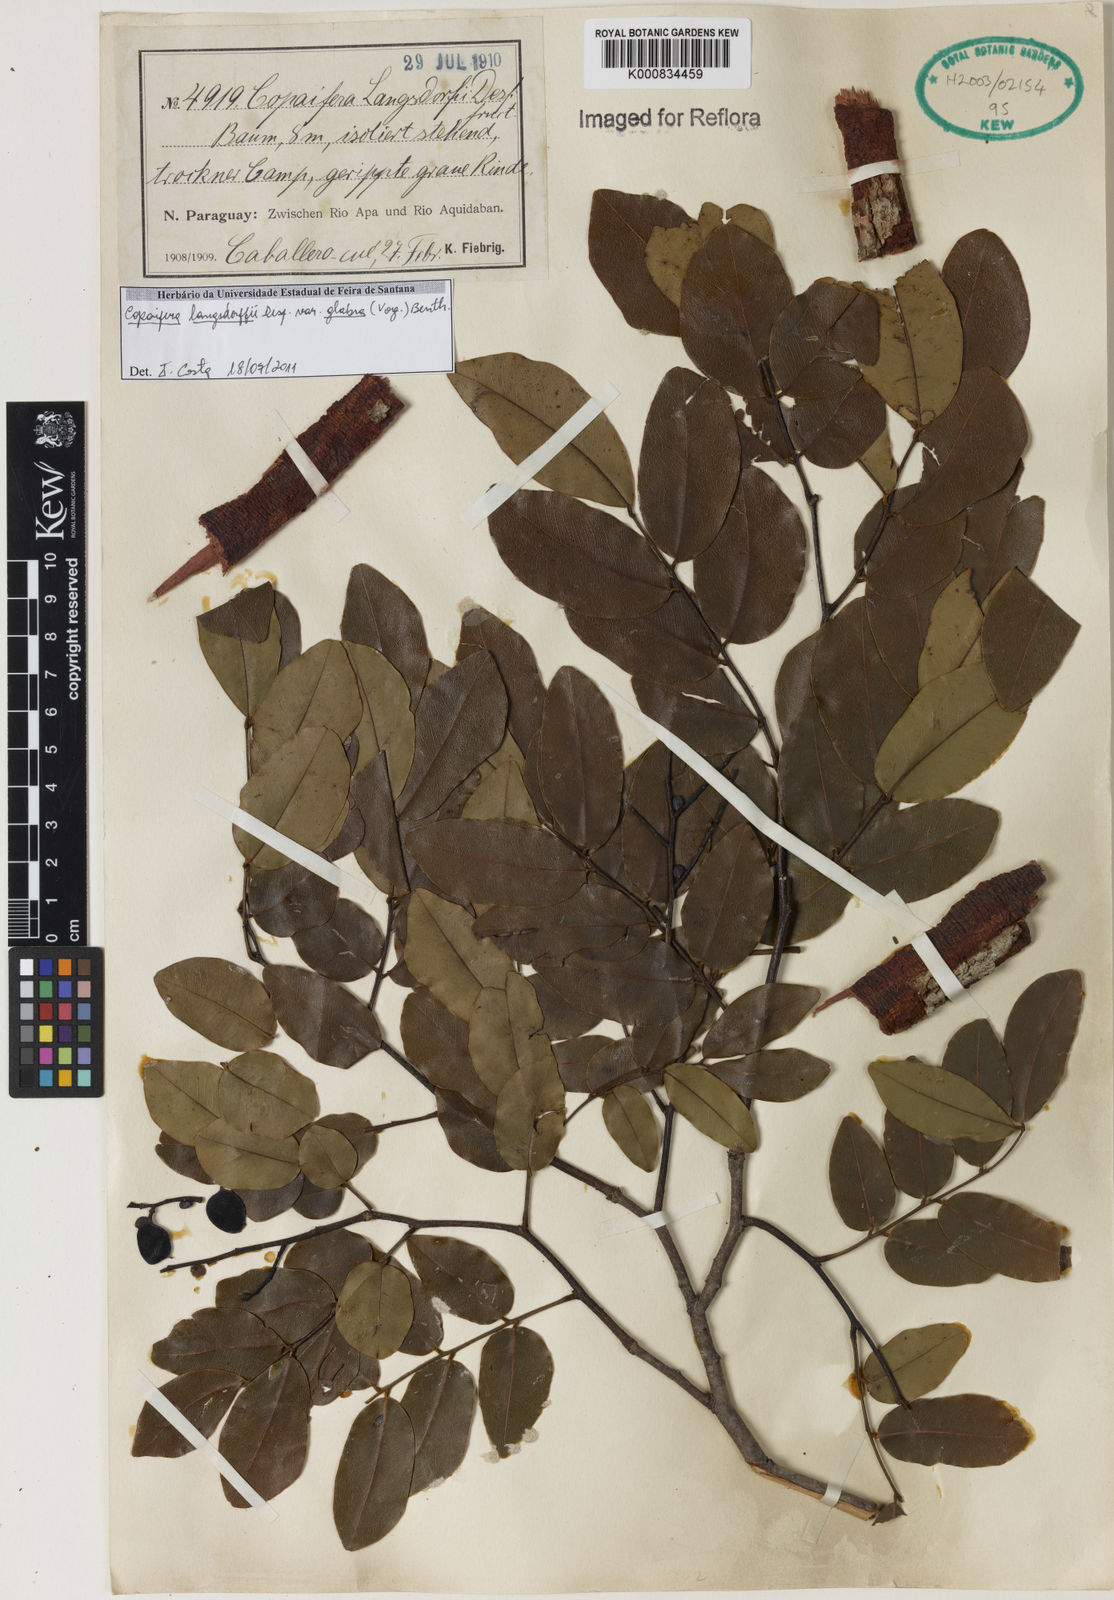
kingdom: Plantae
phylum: Tracheophyta
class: Magnoliopsida
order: Fabales
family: Fabaceae
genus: Copaifera
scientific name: Copaifera langsdorffii
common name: Brazilian diesel tree
